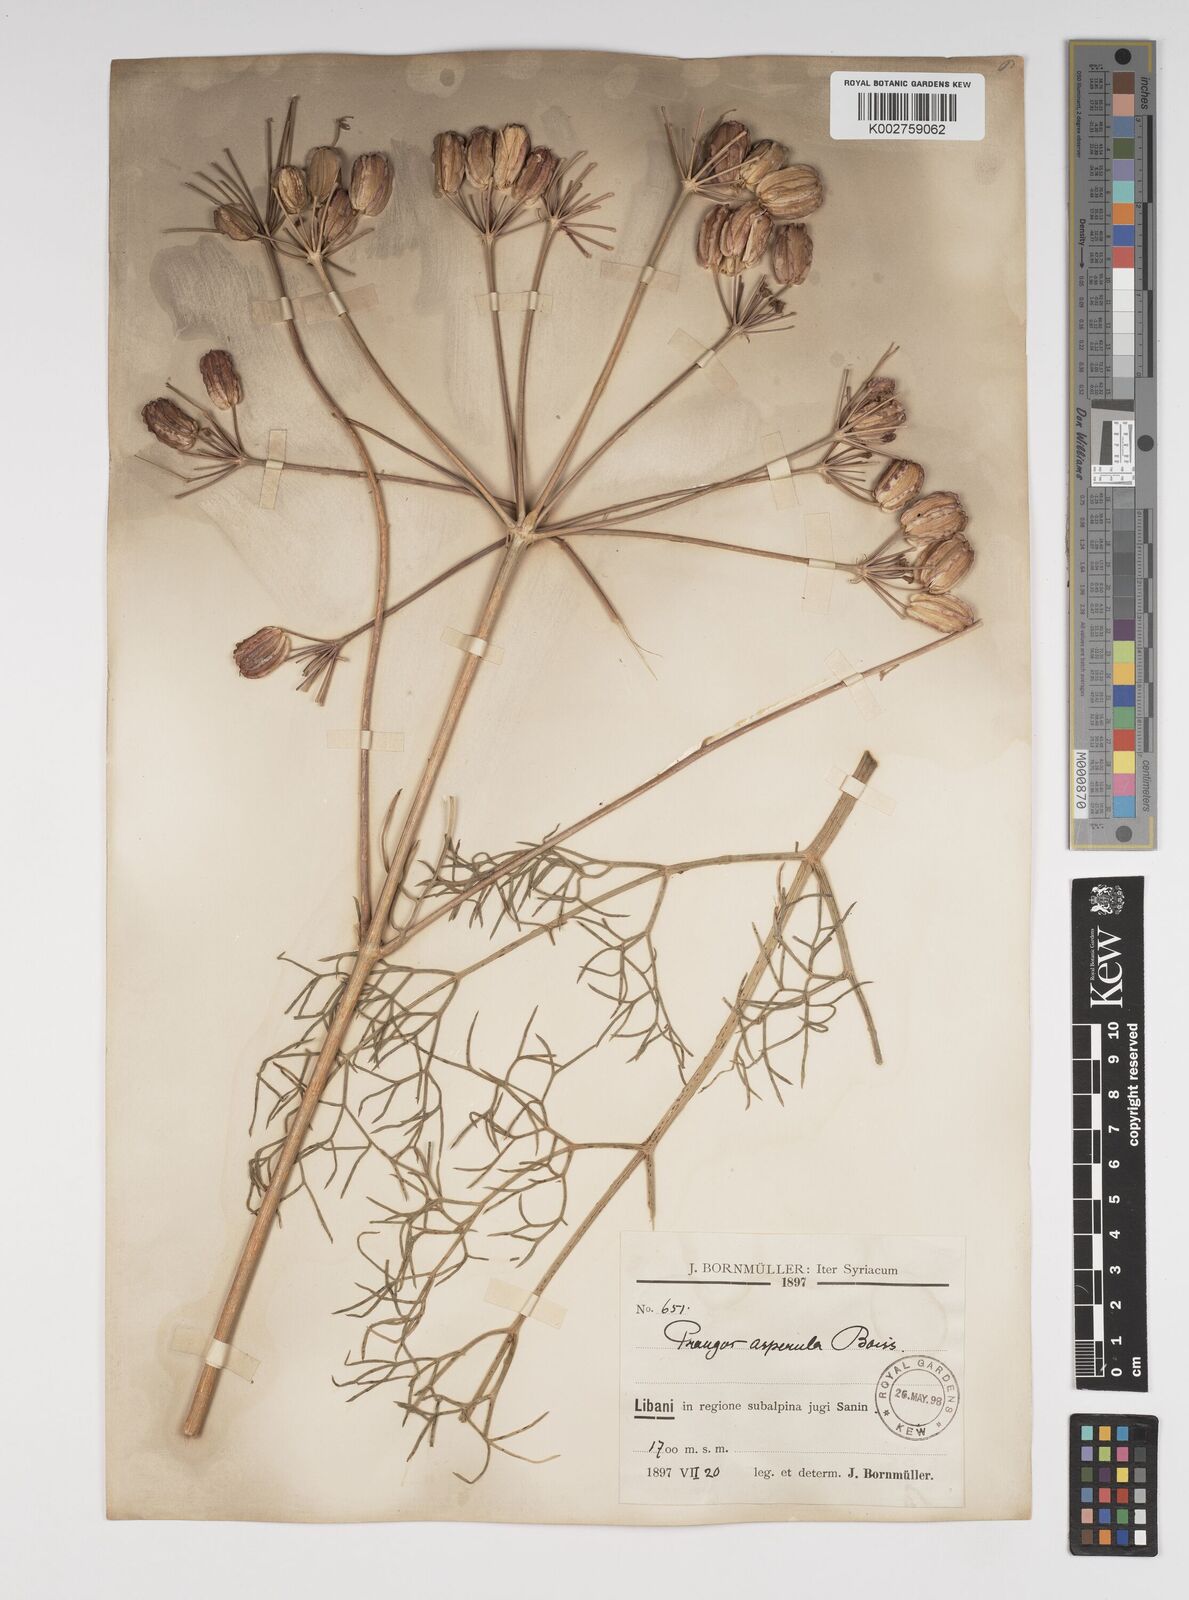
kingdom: Plantae
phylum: Tracheophyta
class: Magnoliopsida
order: Apiales
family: Apiaceae
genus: Prangos
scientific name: Prangos asperula
